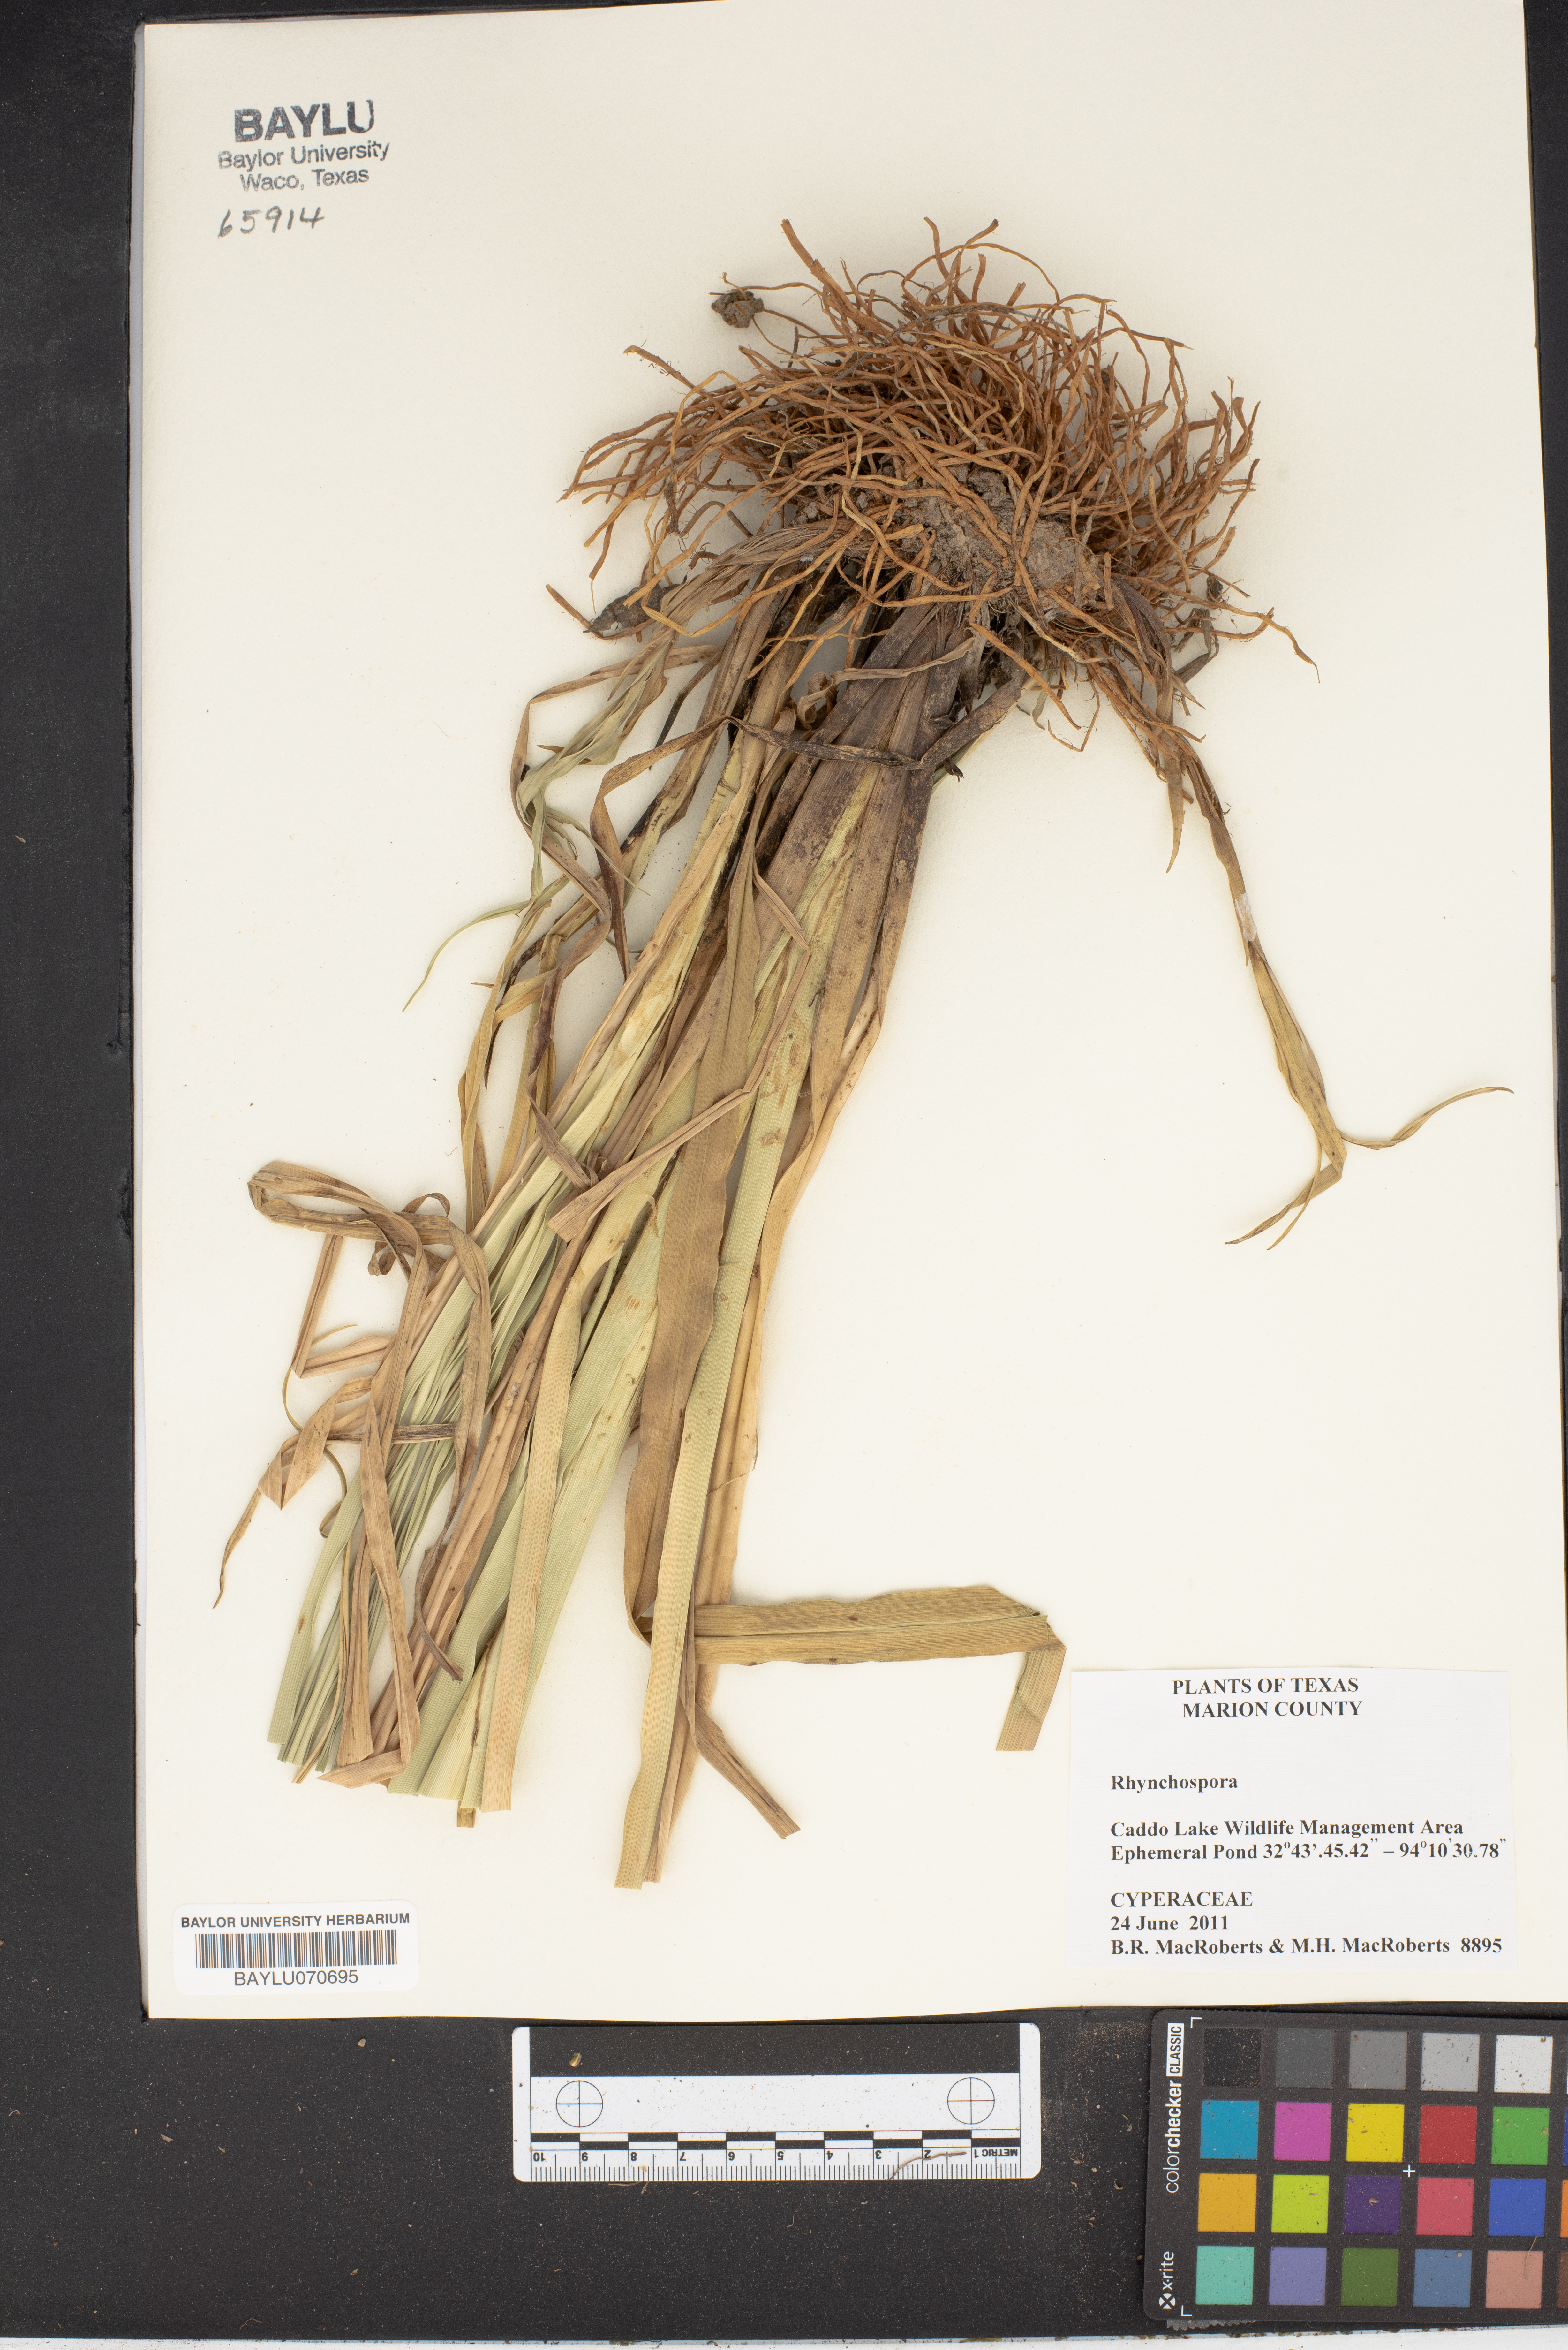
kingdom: Plantae
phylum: Tracheophyta
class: Liliopsida
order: Poales
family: Cyperaceae
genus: Rhynchospora
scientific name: Rhynchospora
